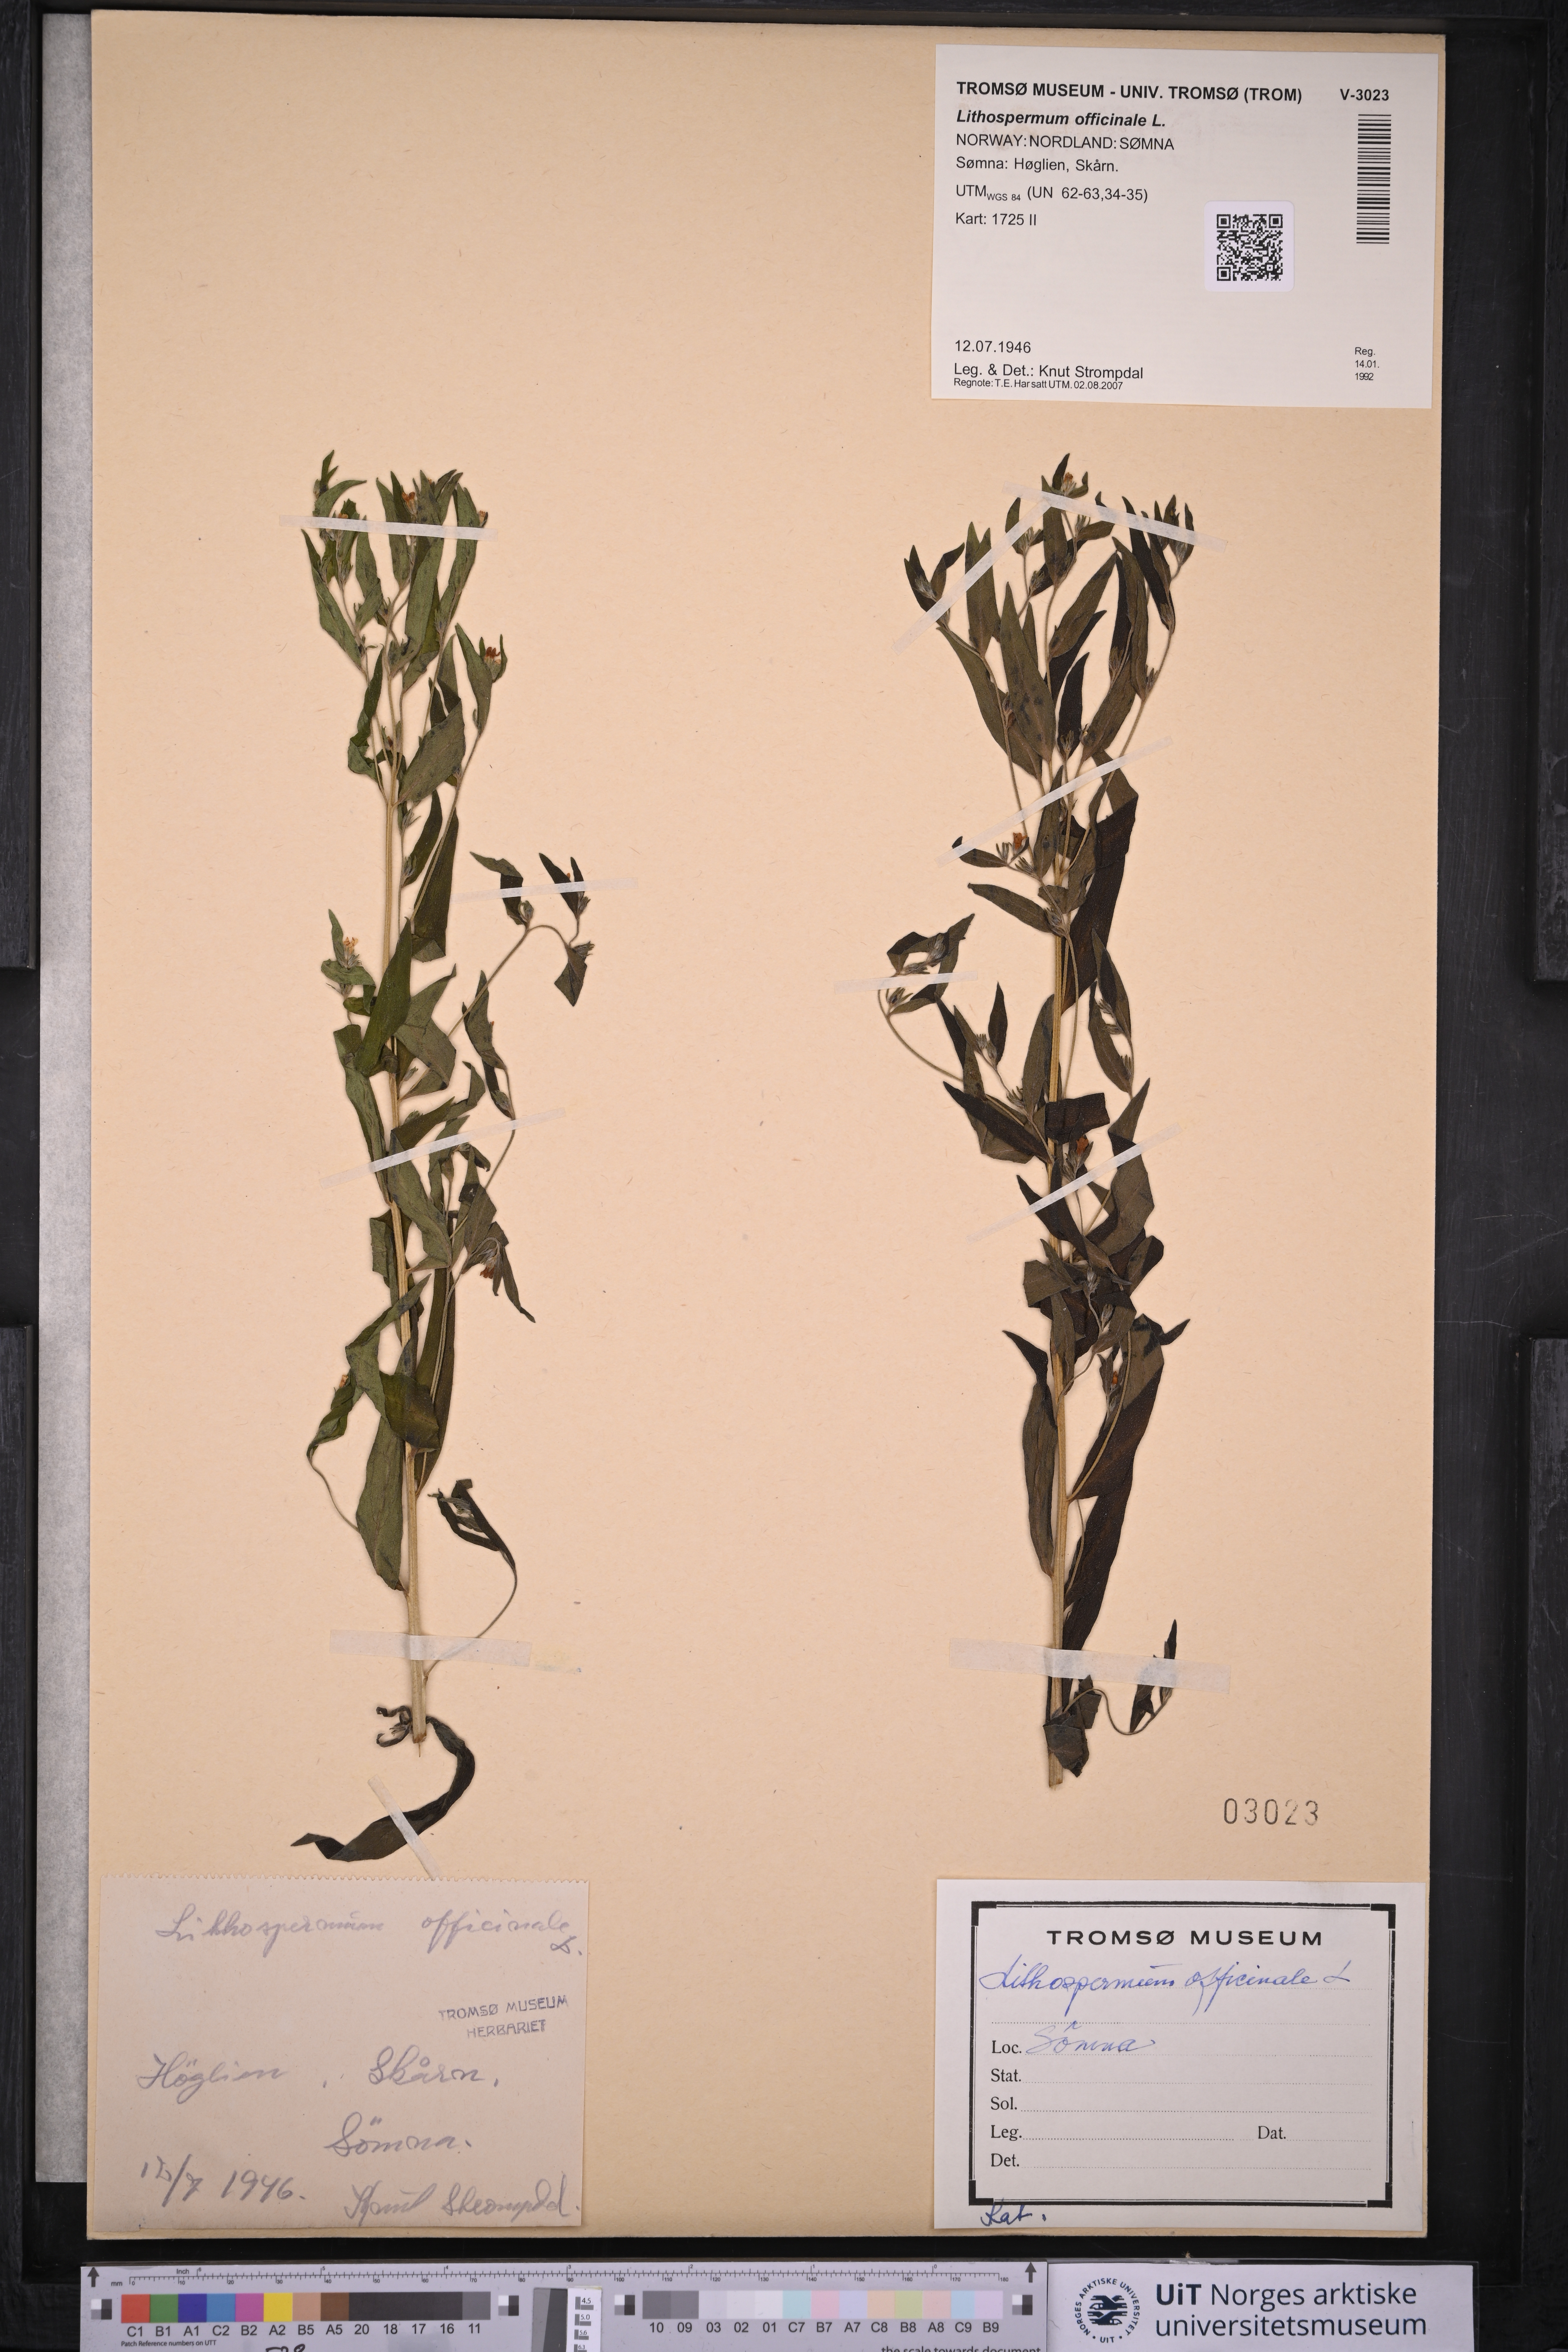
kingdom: Plantae
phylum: Tracheophyta
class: Magnoliopsida
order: Boraginales
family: Boraginaceae
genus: Lithospermum
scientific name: Lithospermum officinale
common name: Common gromwell
